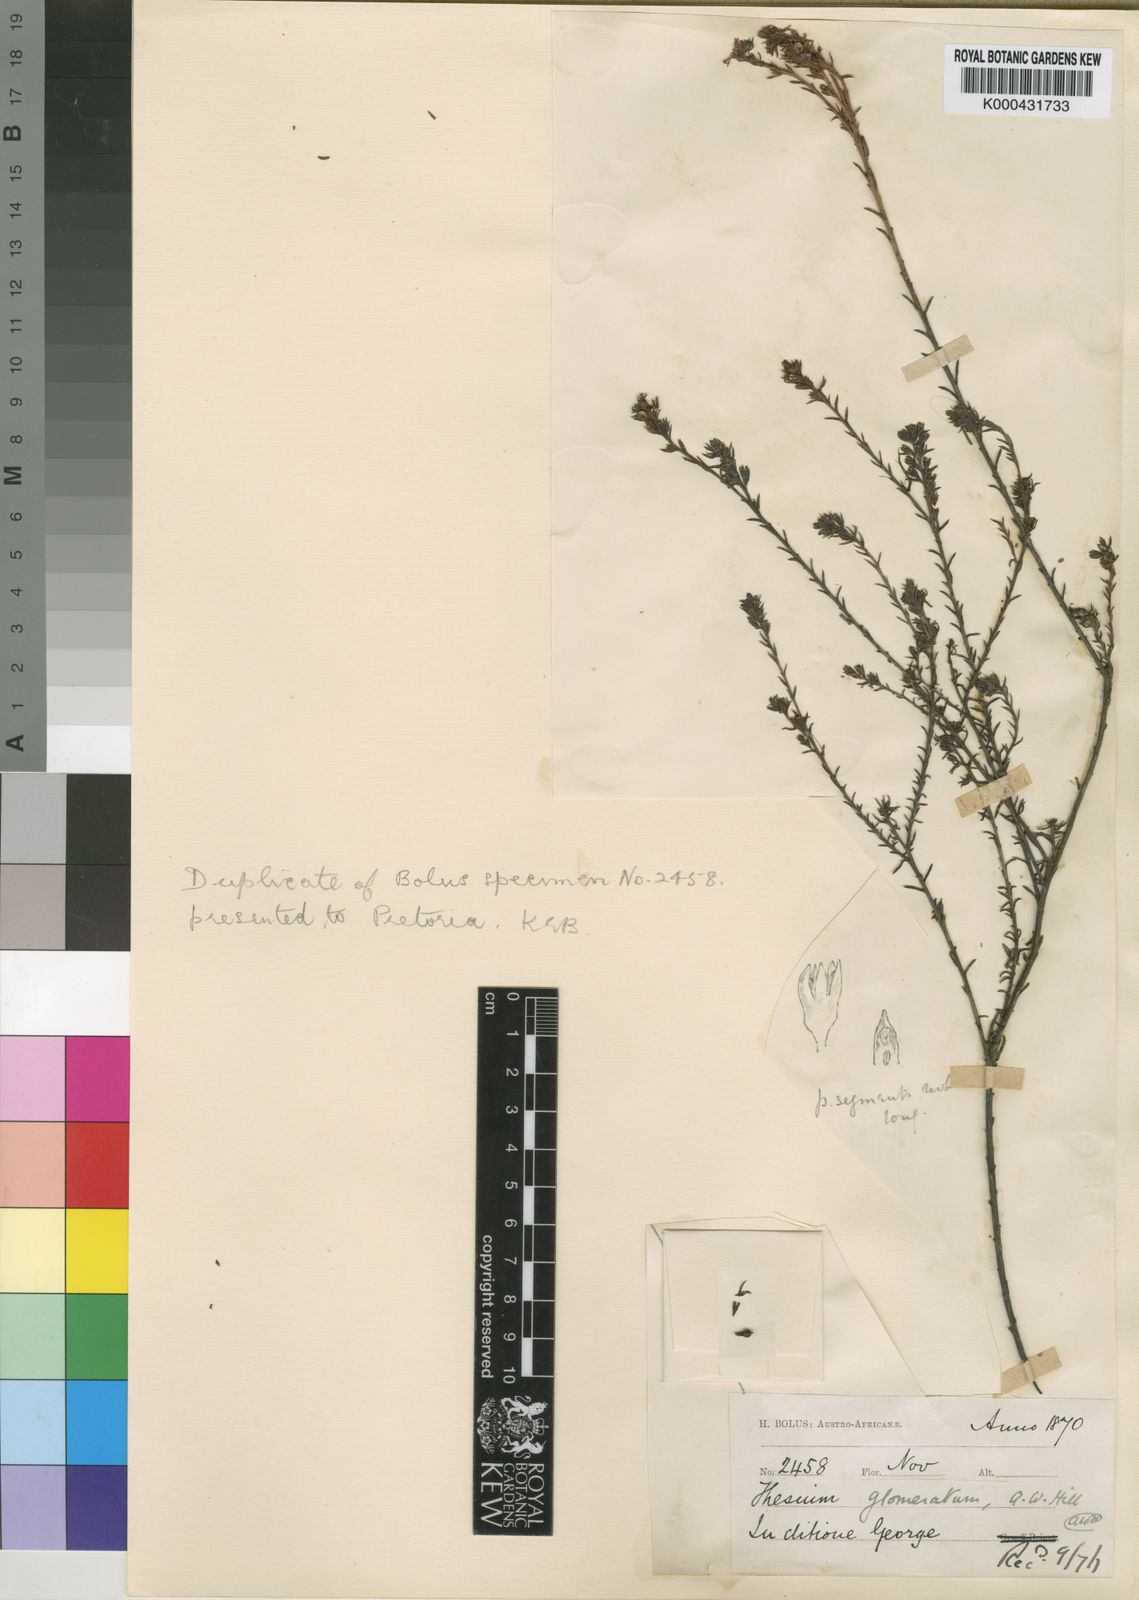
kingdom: Plantae
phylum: Tracheophyta
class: Magnoliopsida
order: Santalales
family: Thesiaceae
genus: Thesium
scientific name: Thesium glomeratum
